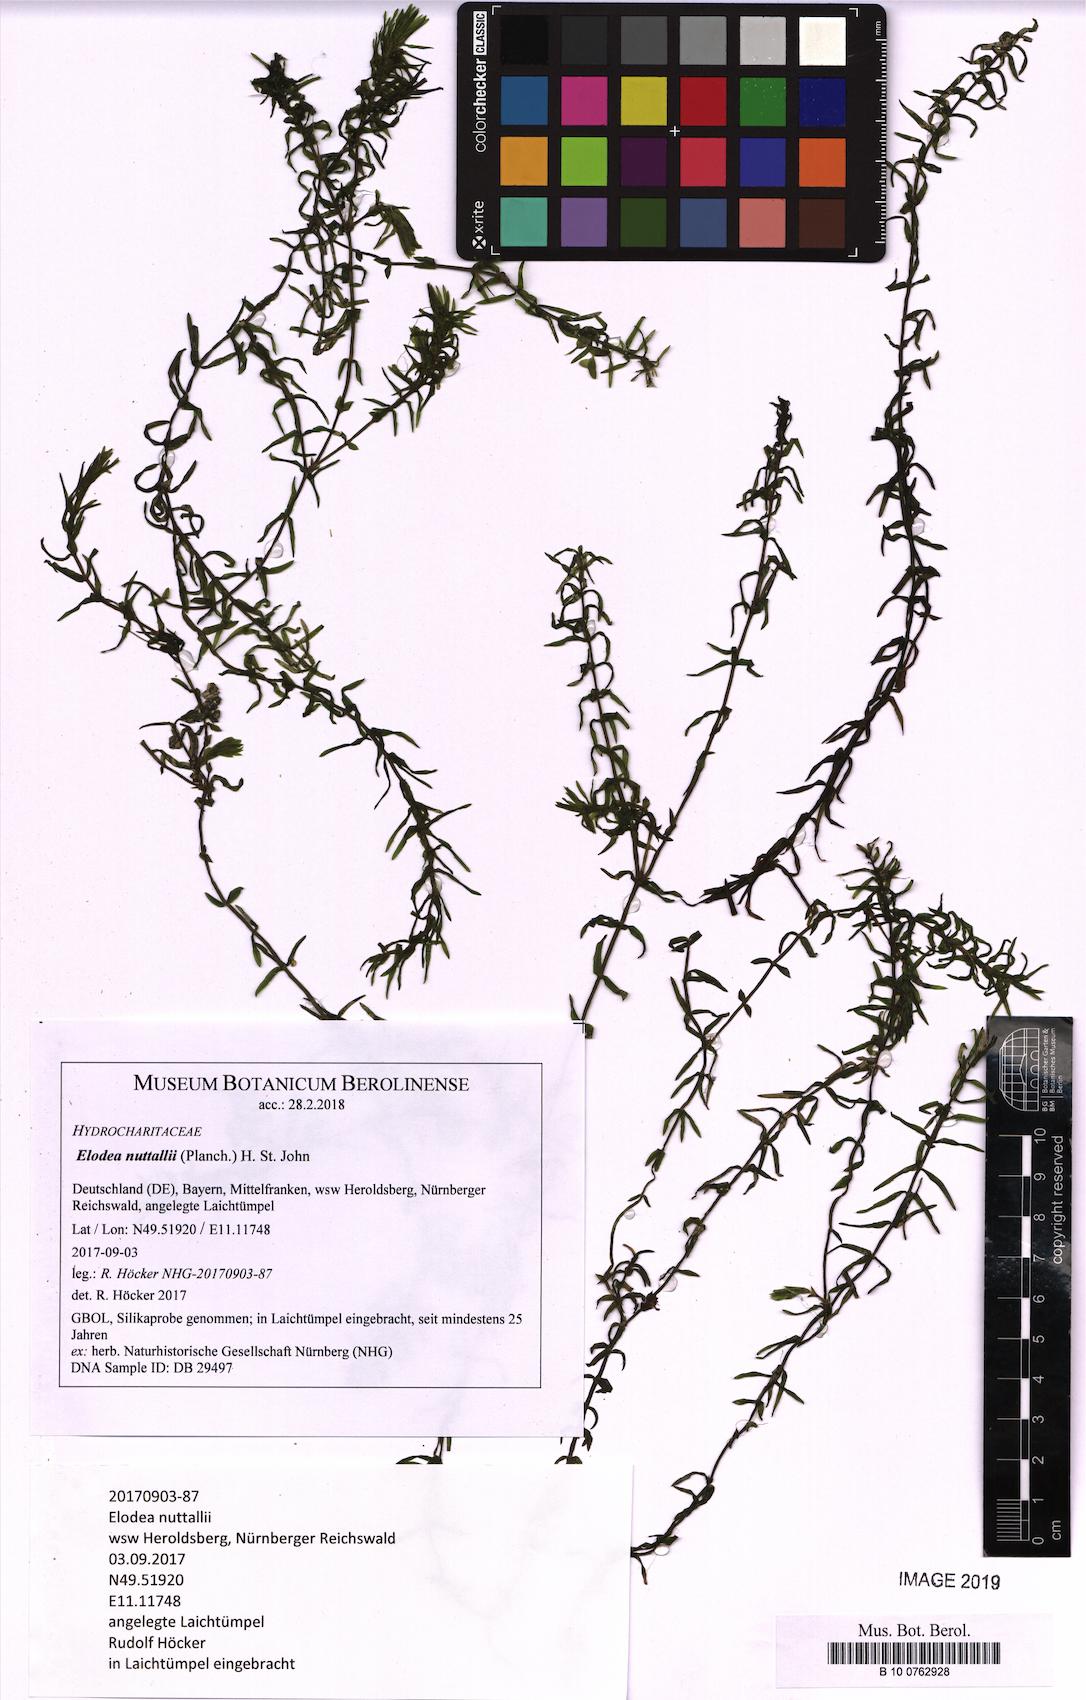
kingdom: Plantae
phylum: Tracheophyta
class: Liliopsida
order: Alismatales
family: Hydrocharitaceae
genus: Elodea
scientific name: Elodea nuttallii
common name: Nuttall's waterweed
